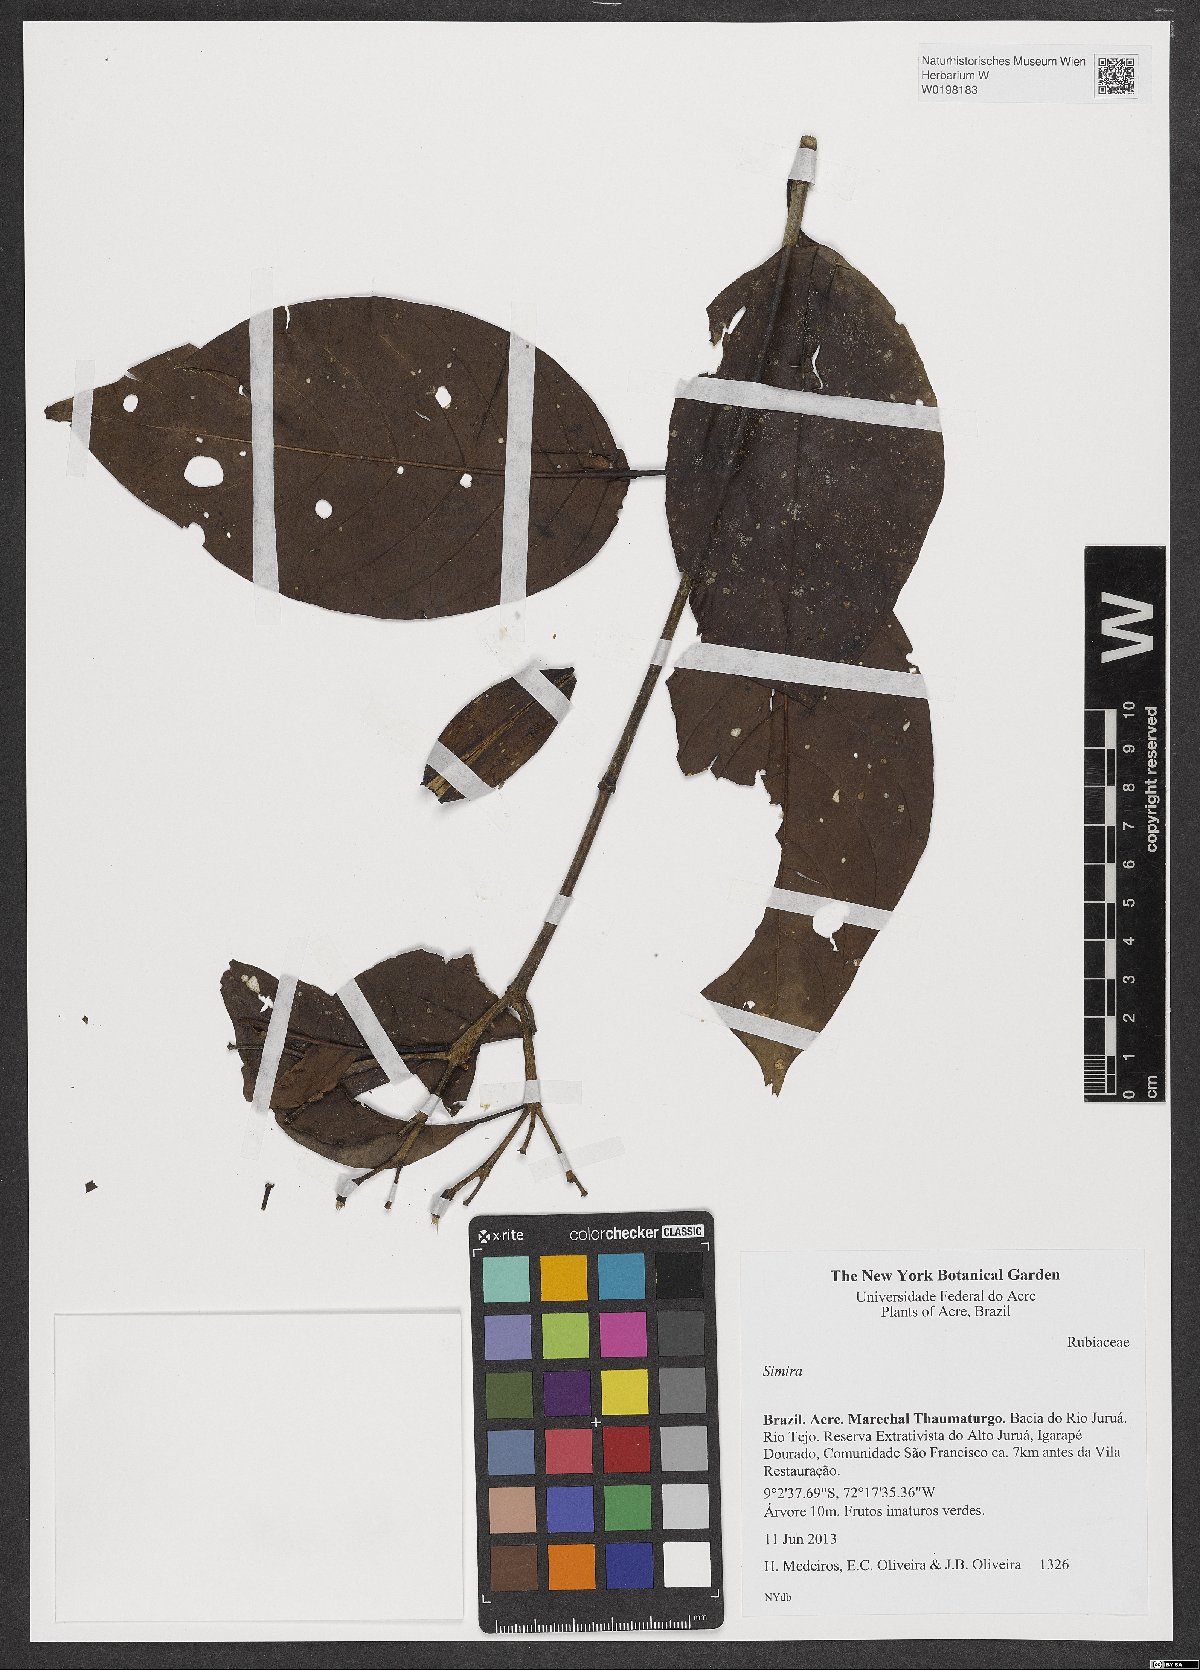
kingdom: Plantae
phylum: Tracheophyta
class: Magnoliopsida
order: Gentianales
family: Rubiaceae
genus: Simira
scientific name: Simira
